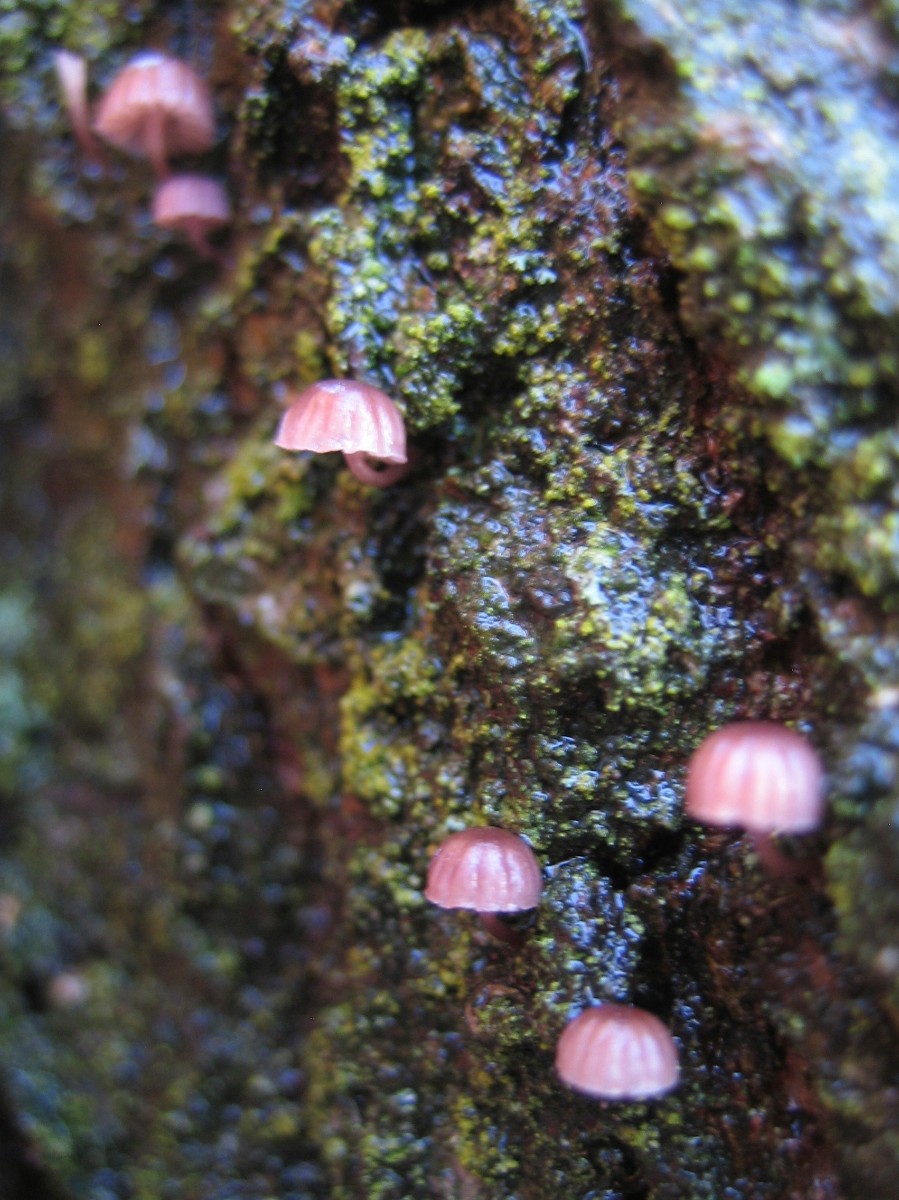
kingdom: Fungi
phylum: Basidiomycota
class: Agaricomycetes
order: Agaricales
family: Mycenaceae
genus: Mycena
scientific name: Mycena meliigena
